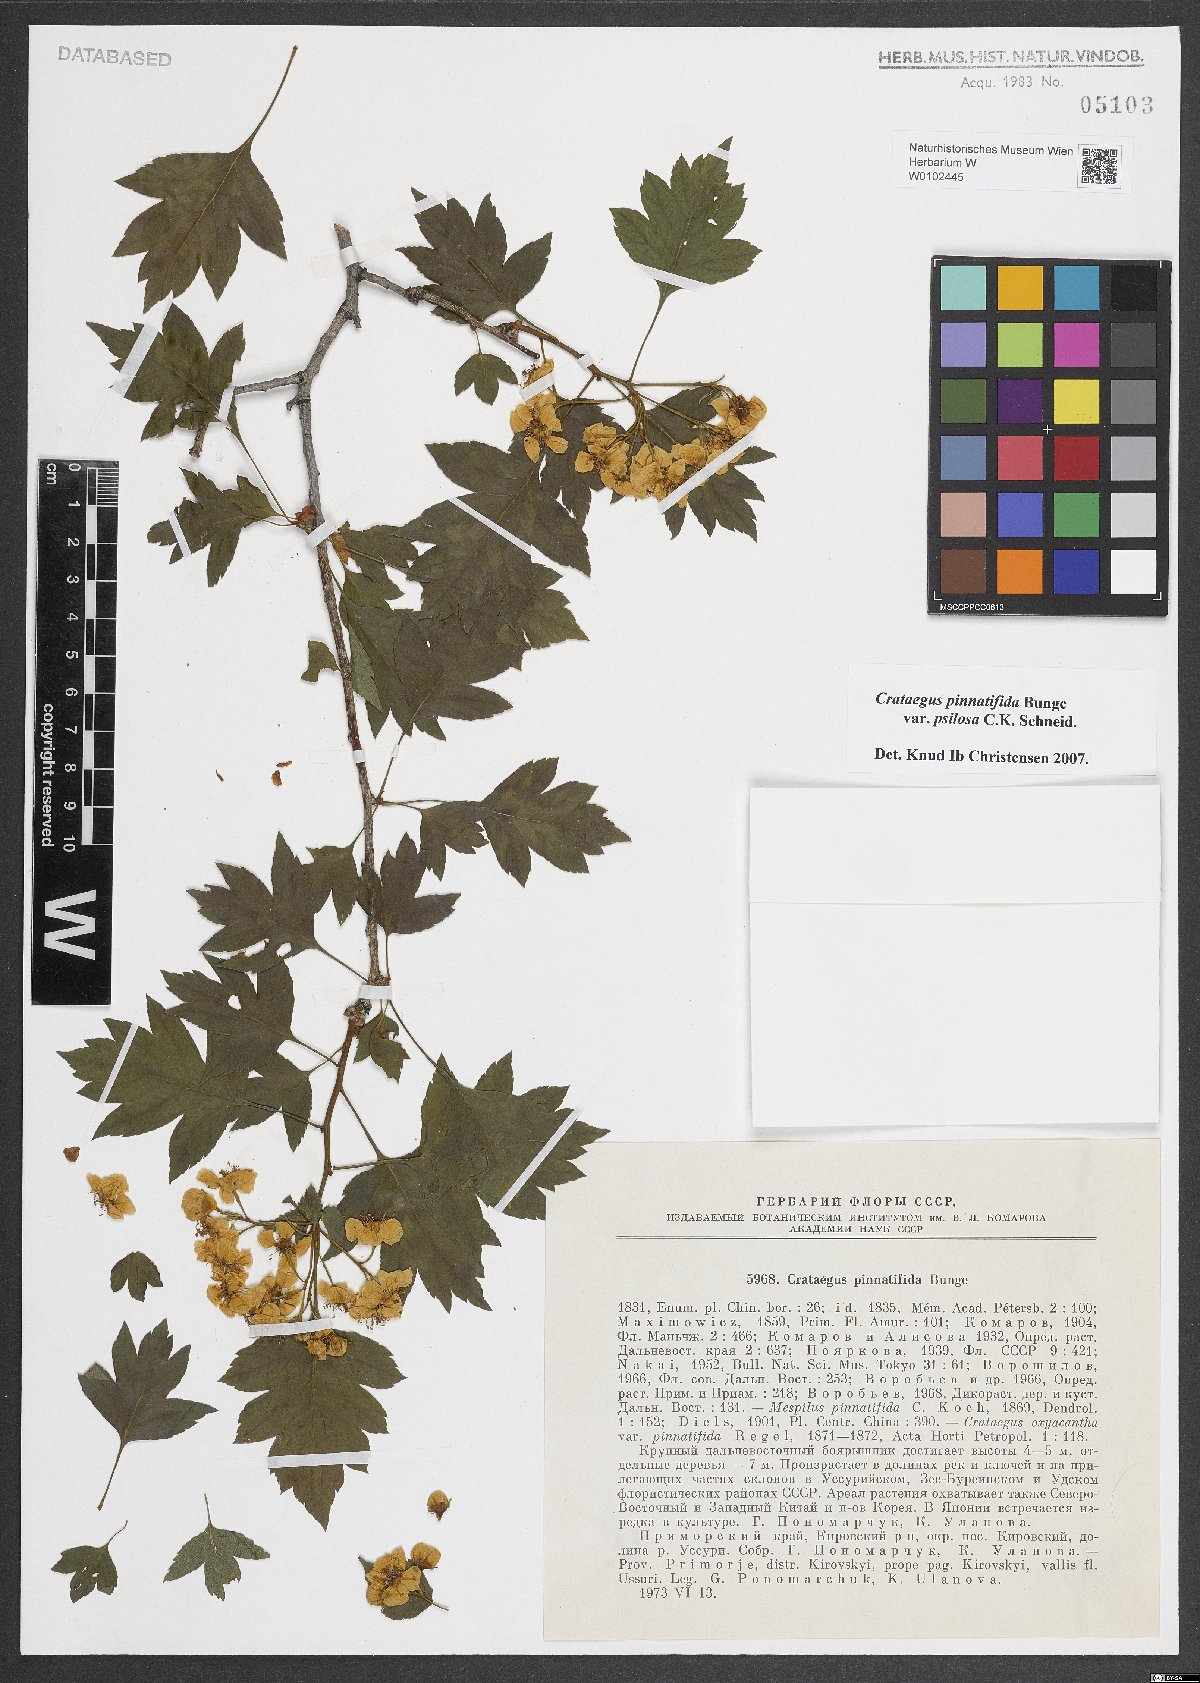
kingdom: Plantae
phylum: Tracheophyta
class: Magnoliopsida
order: Rosales
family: Rosaceae
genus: Crataegus
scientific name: Crataegus pinnatifida
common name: Chinese haw
